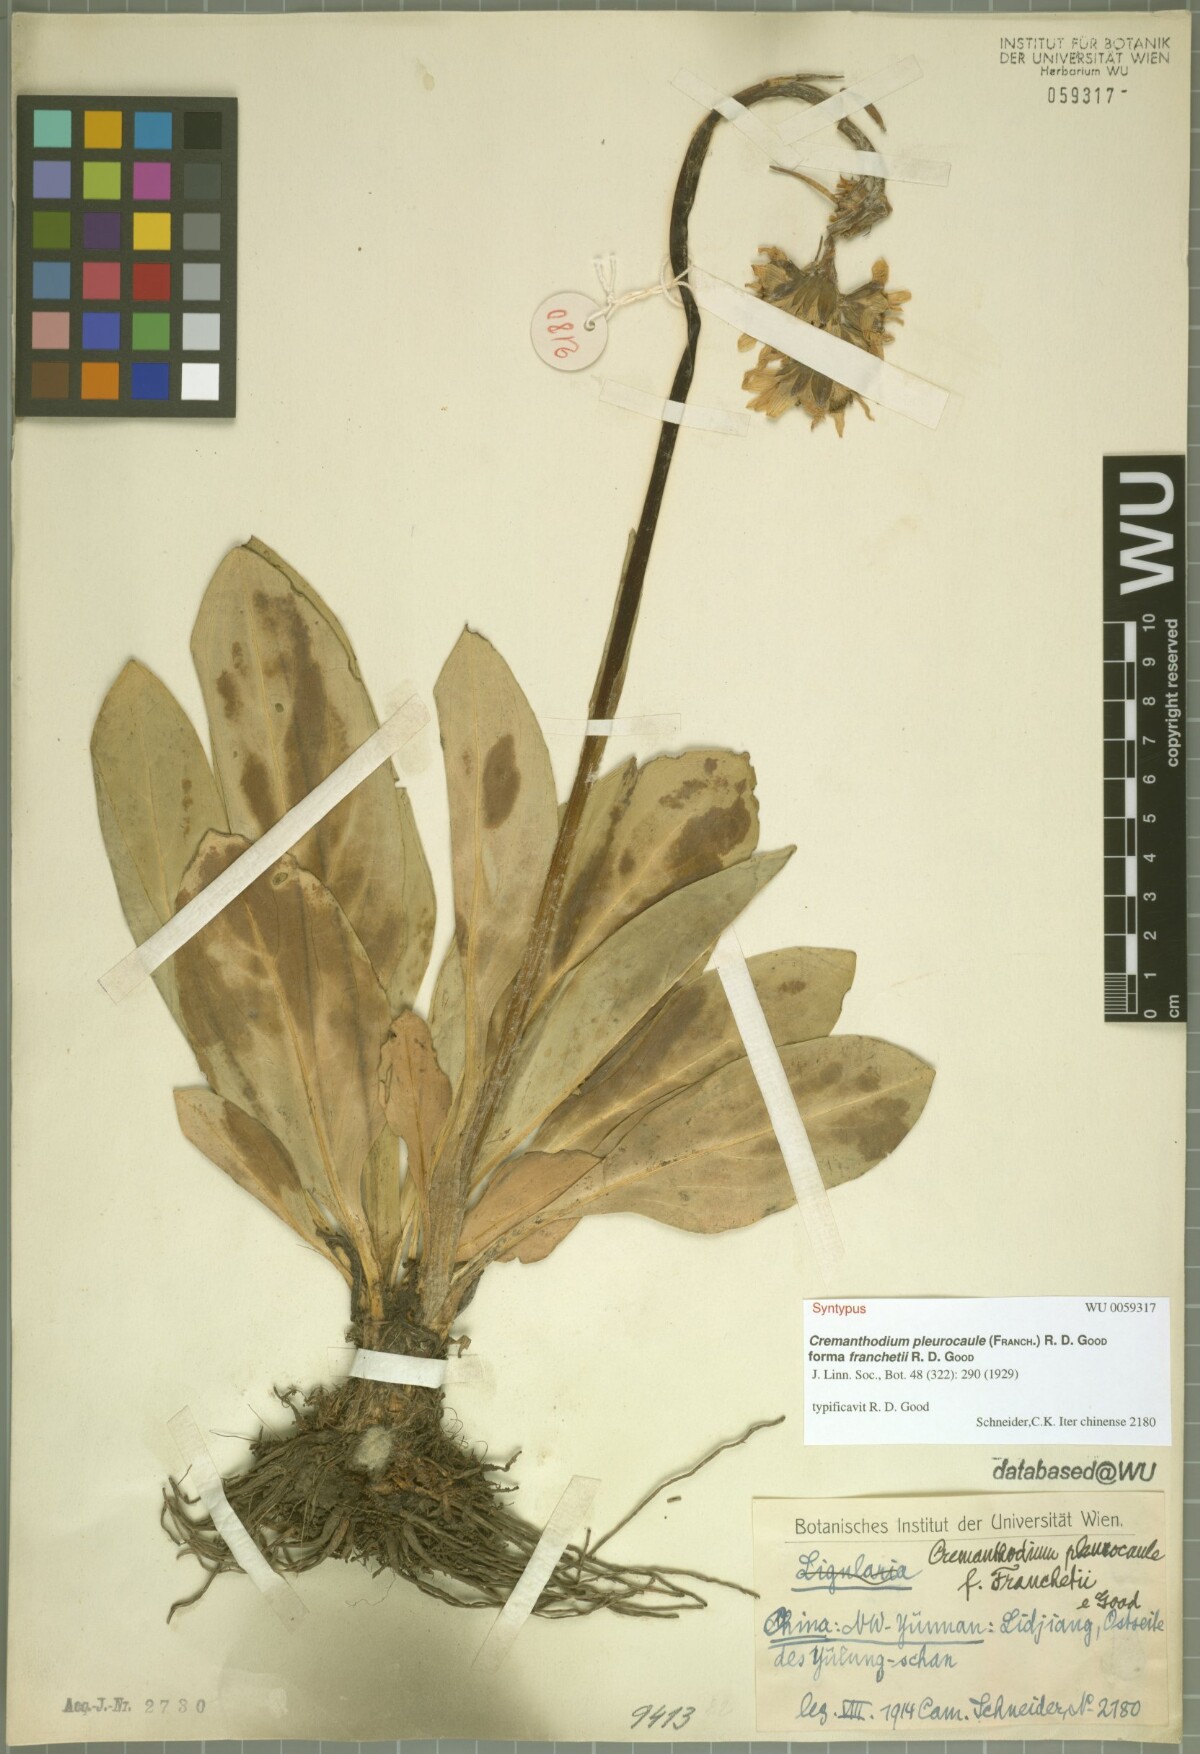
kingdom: Plantae
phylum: Tracheophyta
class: Magnoliopsida
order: Asterales
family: Asteraceae
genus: Ligularia
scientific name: Ligularia pleurocaulis
